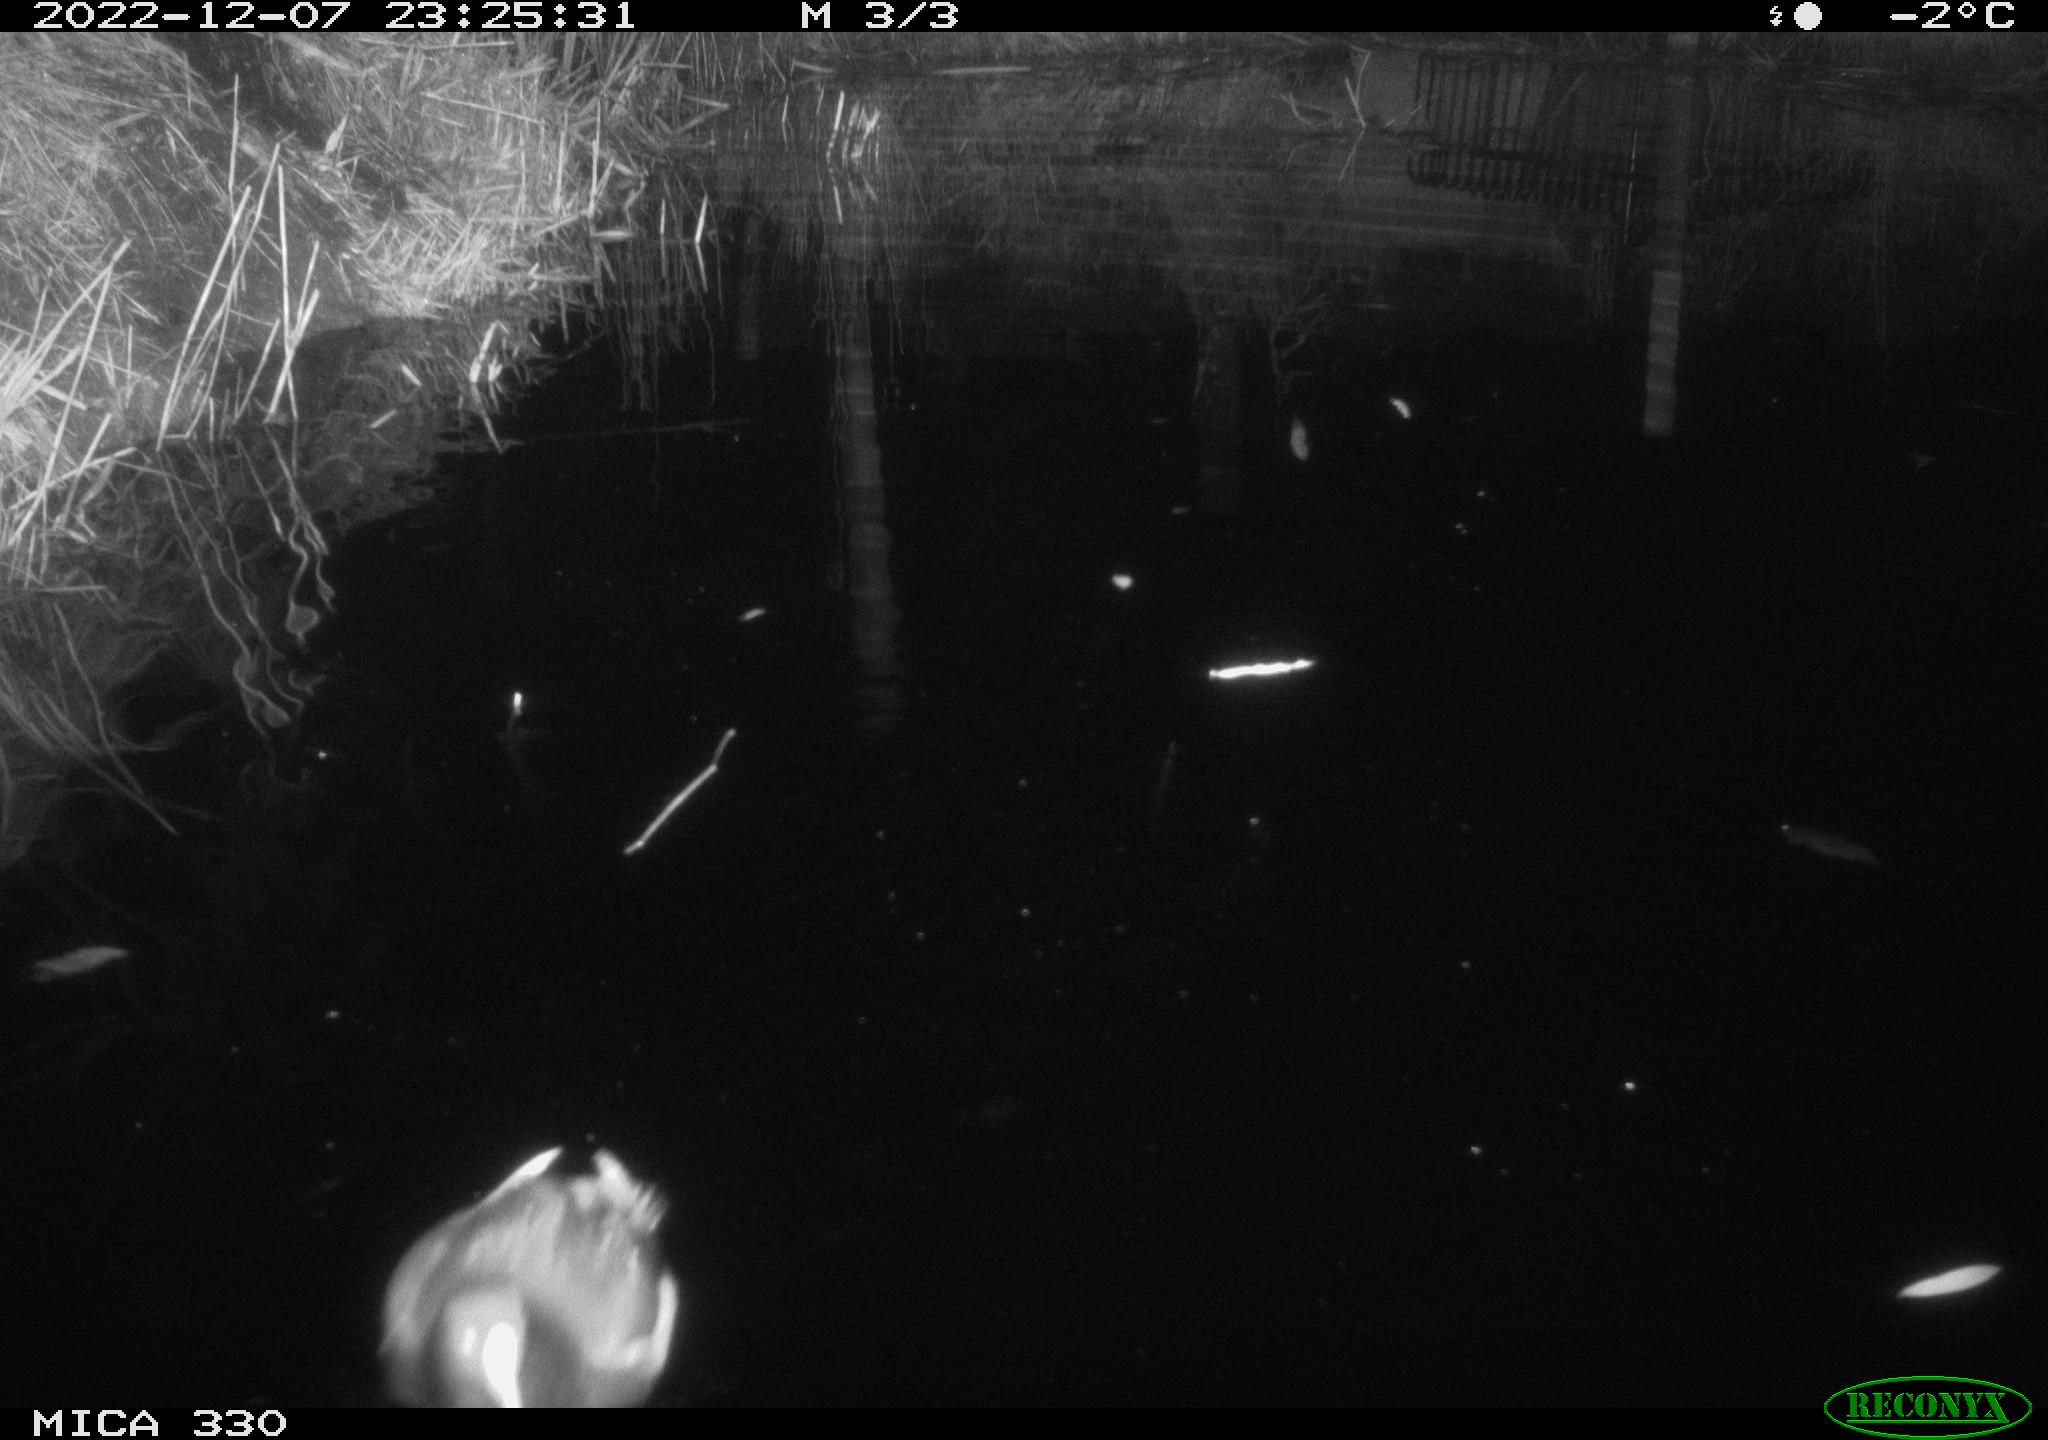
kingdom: Animalia
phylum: Chordata
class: Aves
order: Gruiformes
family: Rallidae
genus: Gallinula
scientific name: Gallinula chloropus
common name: Common moorhen
